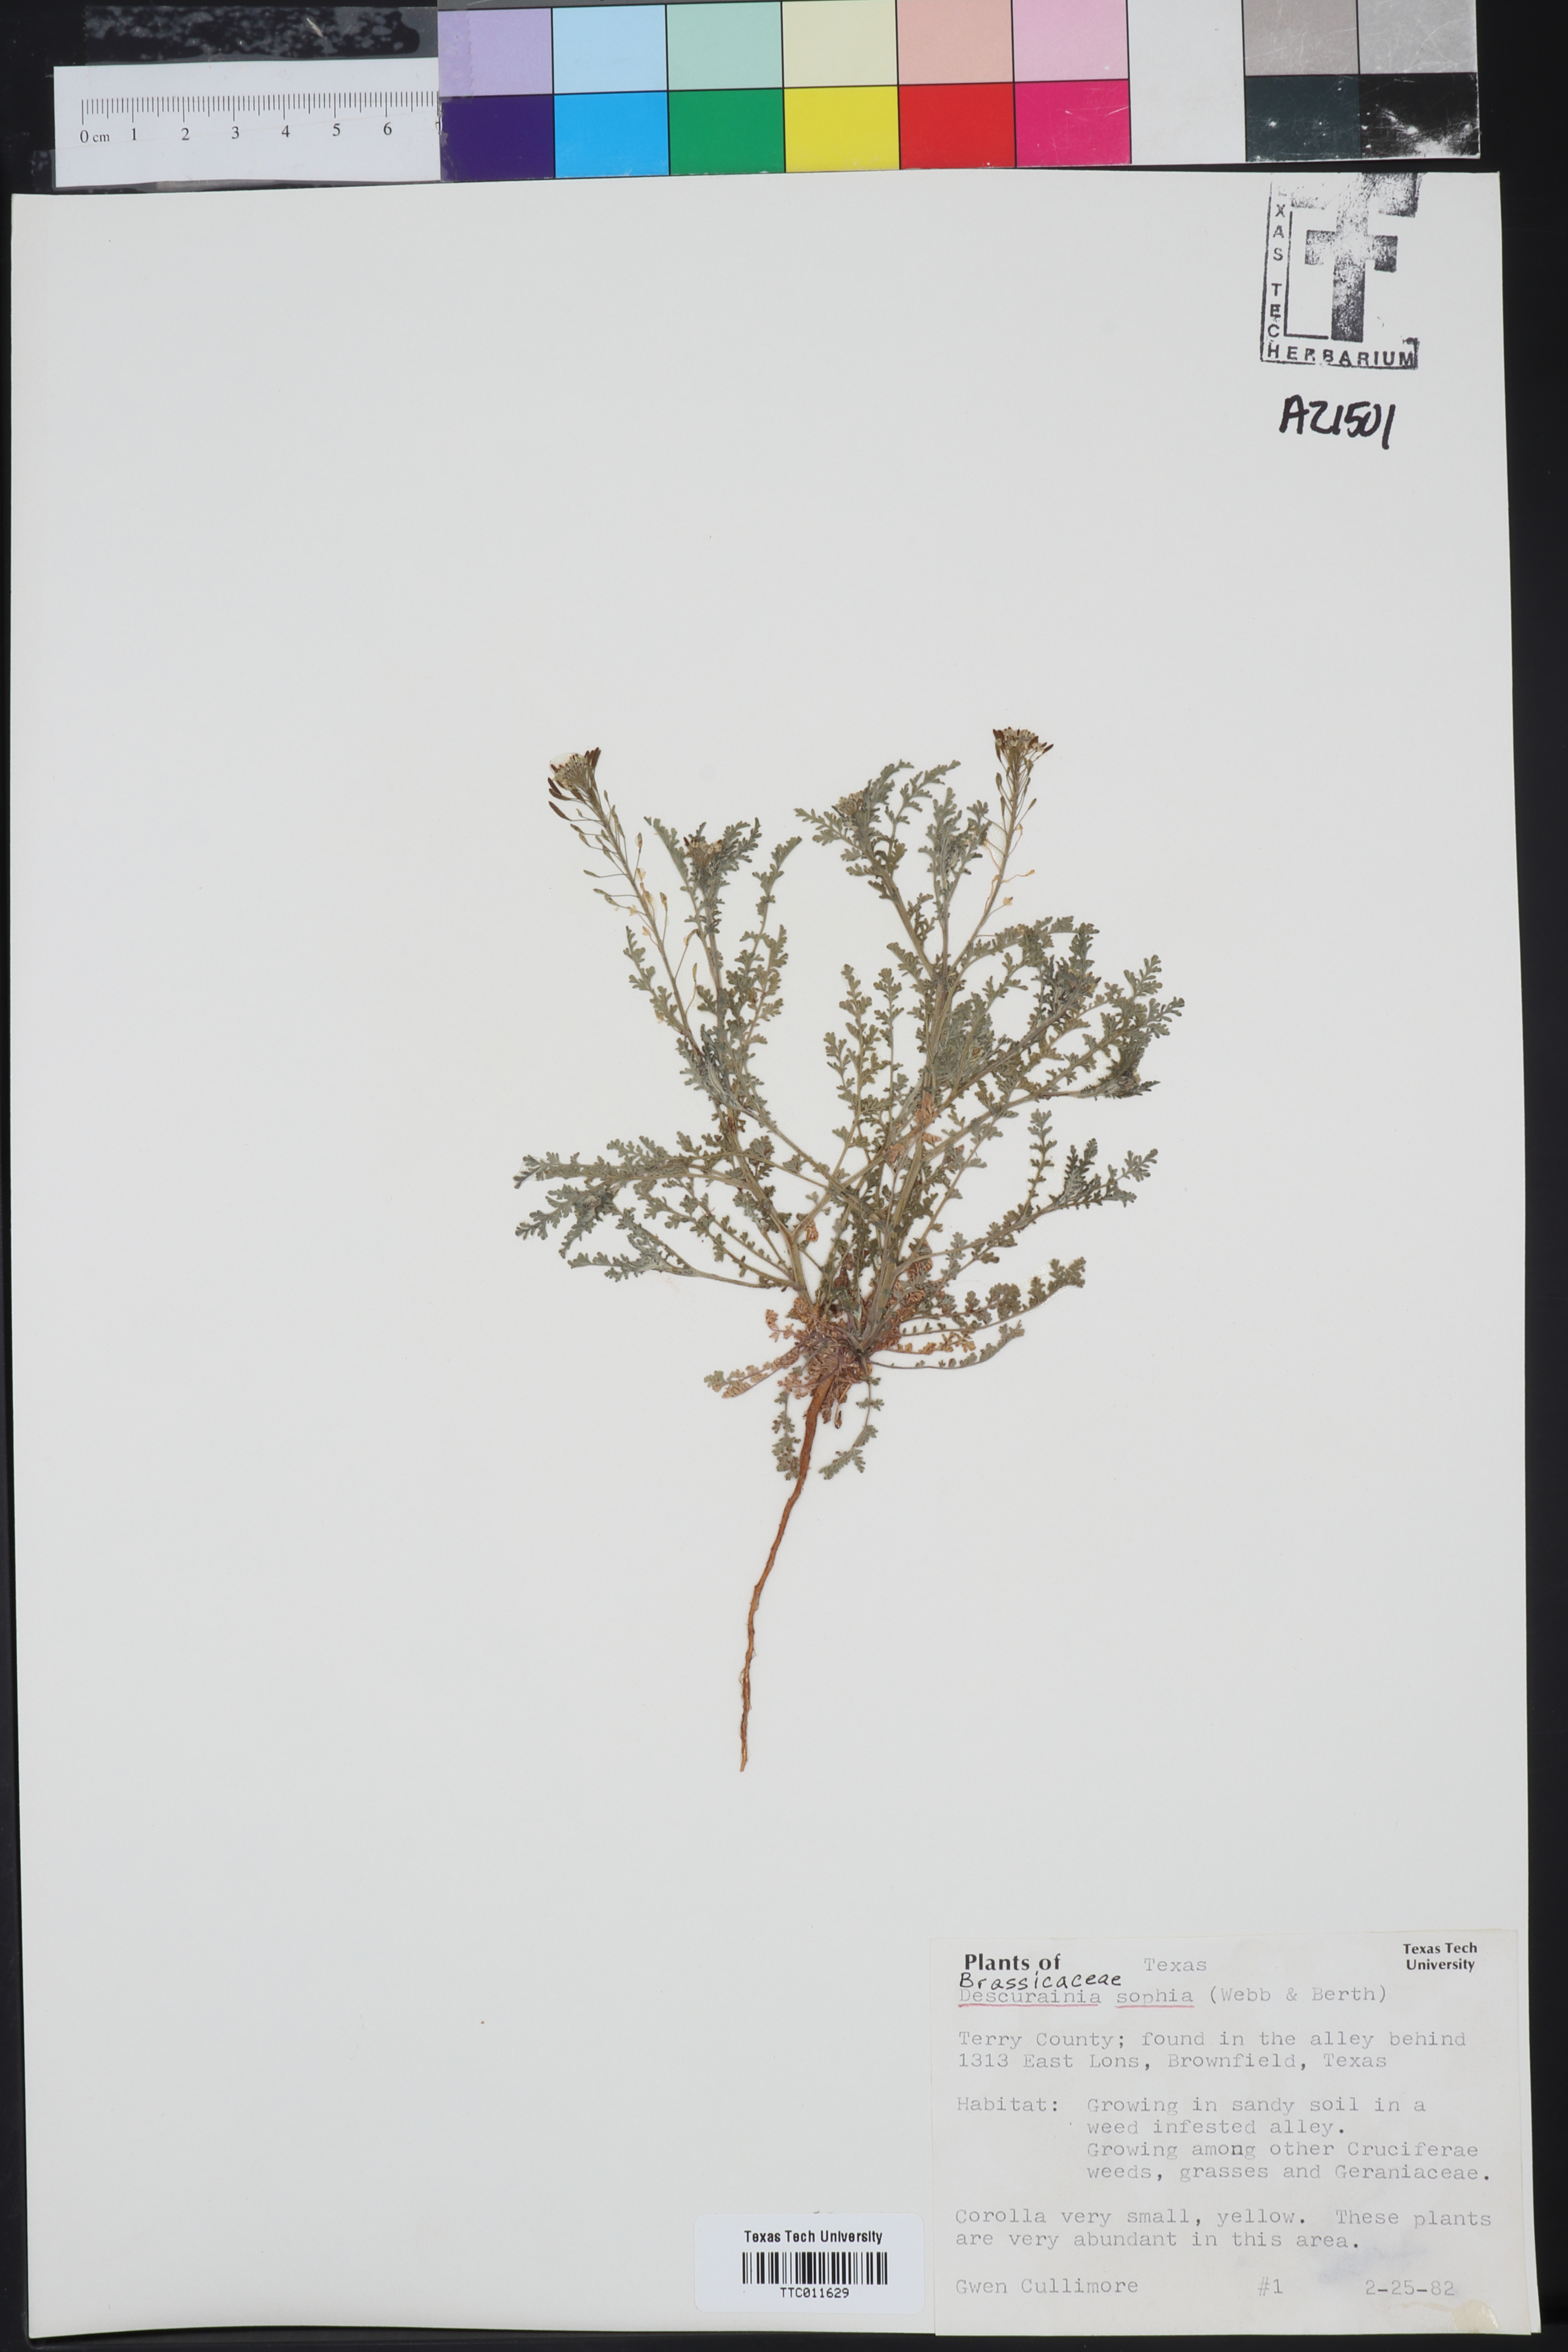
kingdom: Plantae
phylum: Tracheophyta
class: Magnoliopsida
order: Brassicales
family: Brassicaceae
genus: Descurainia
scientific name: Descurainia sophia
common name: Flixweed
